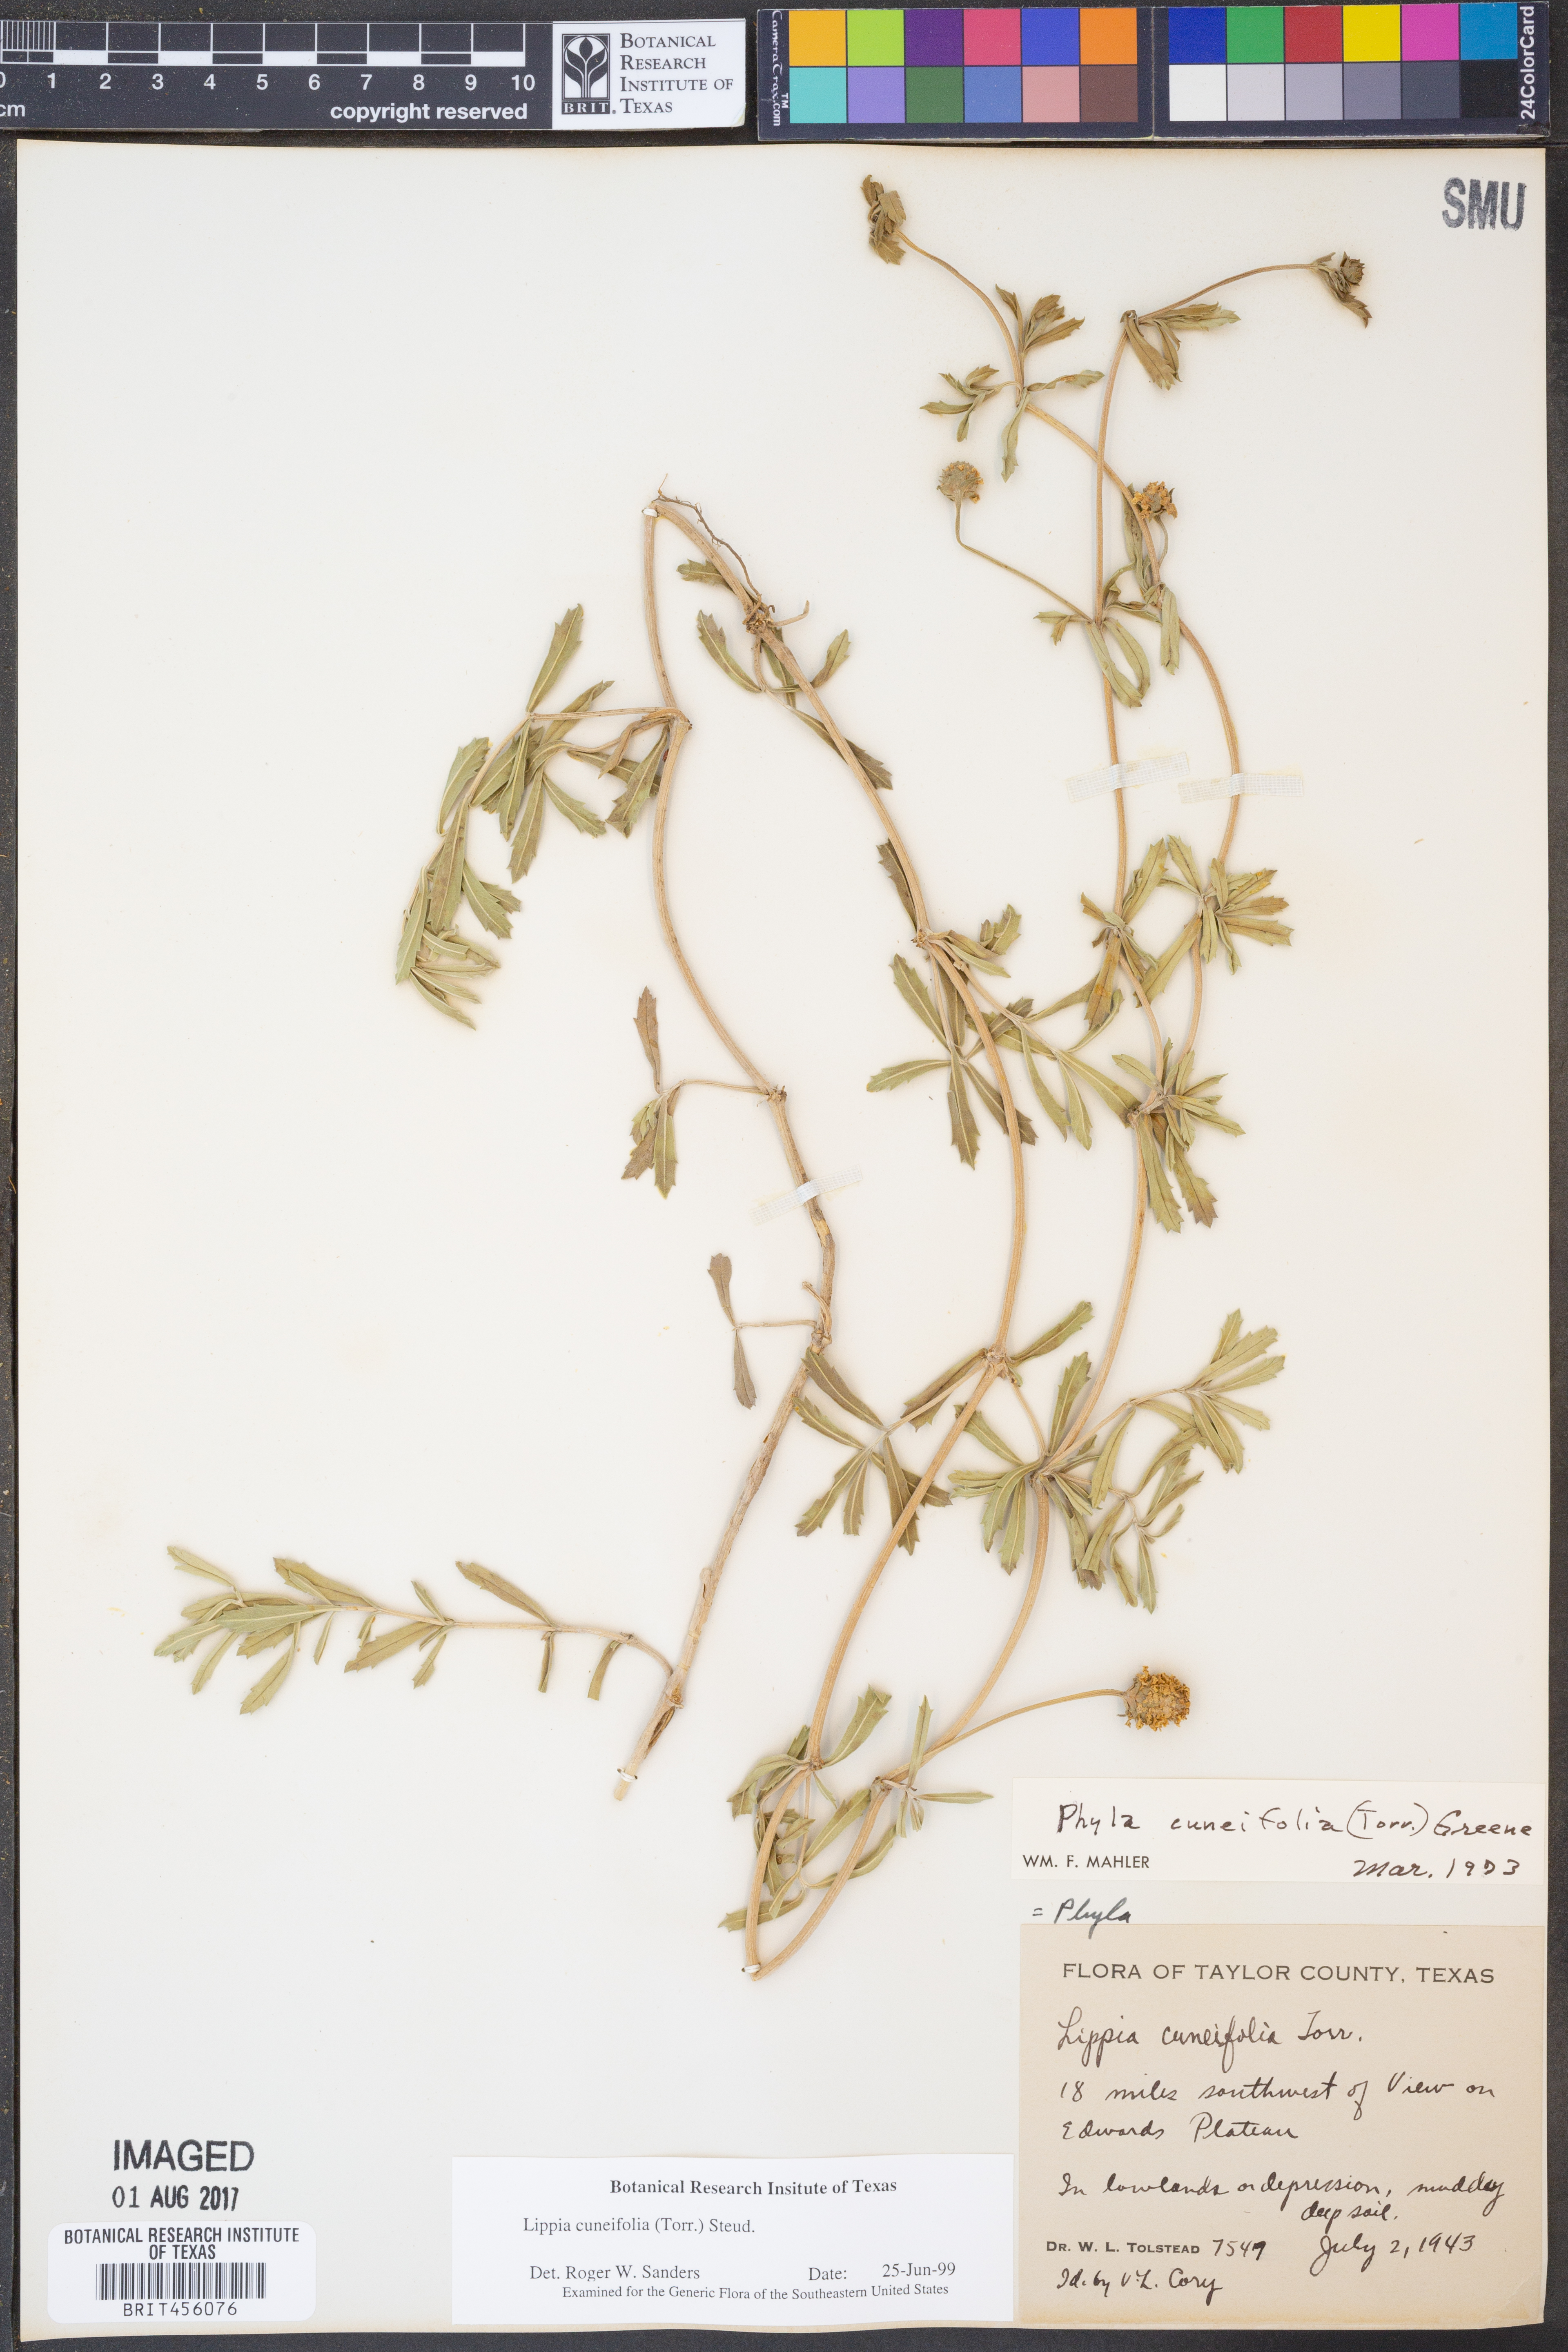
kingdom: Plantae
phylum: Tracheophyta
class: Magnoliopsida
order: Lamiales
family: Verbenaceae
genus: Phyla
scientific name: Phyla cuneifolia
